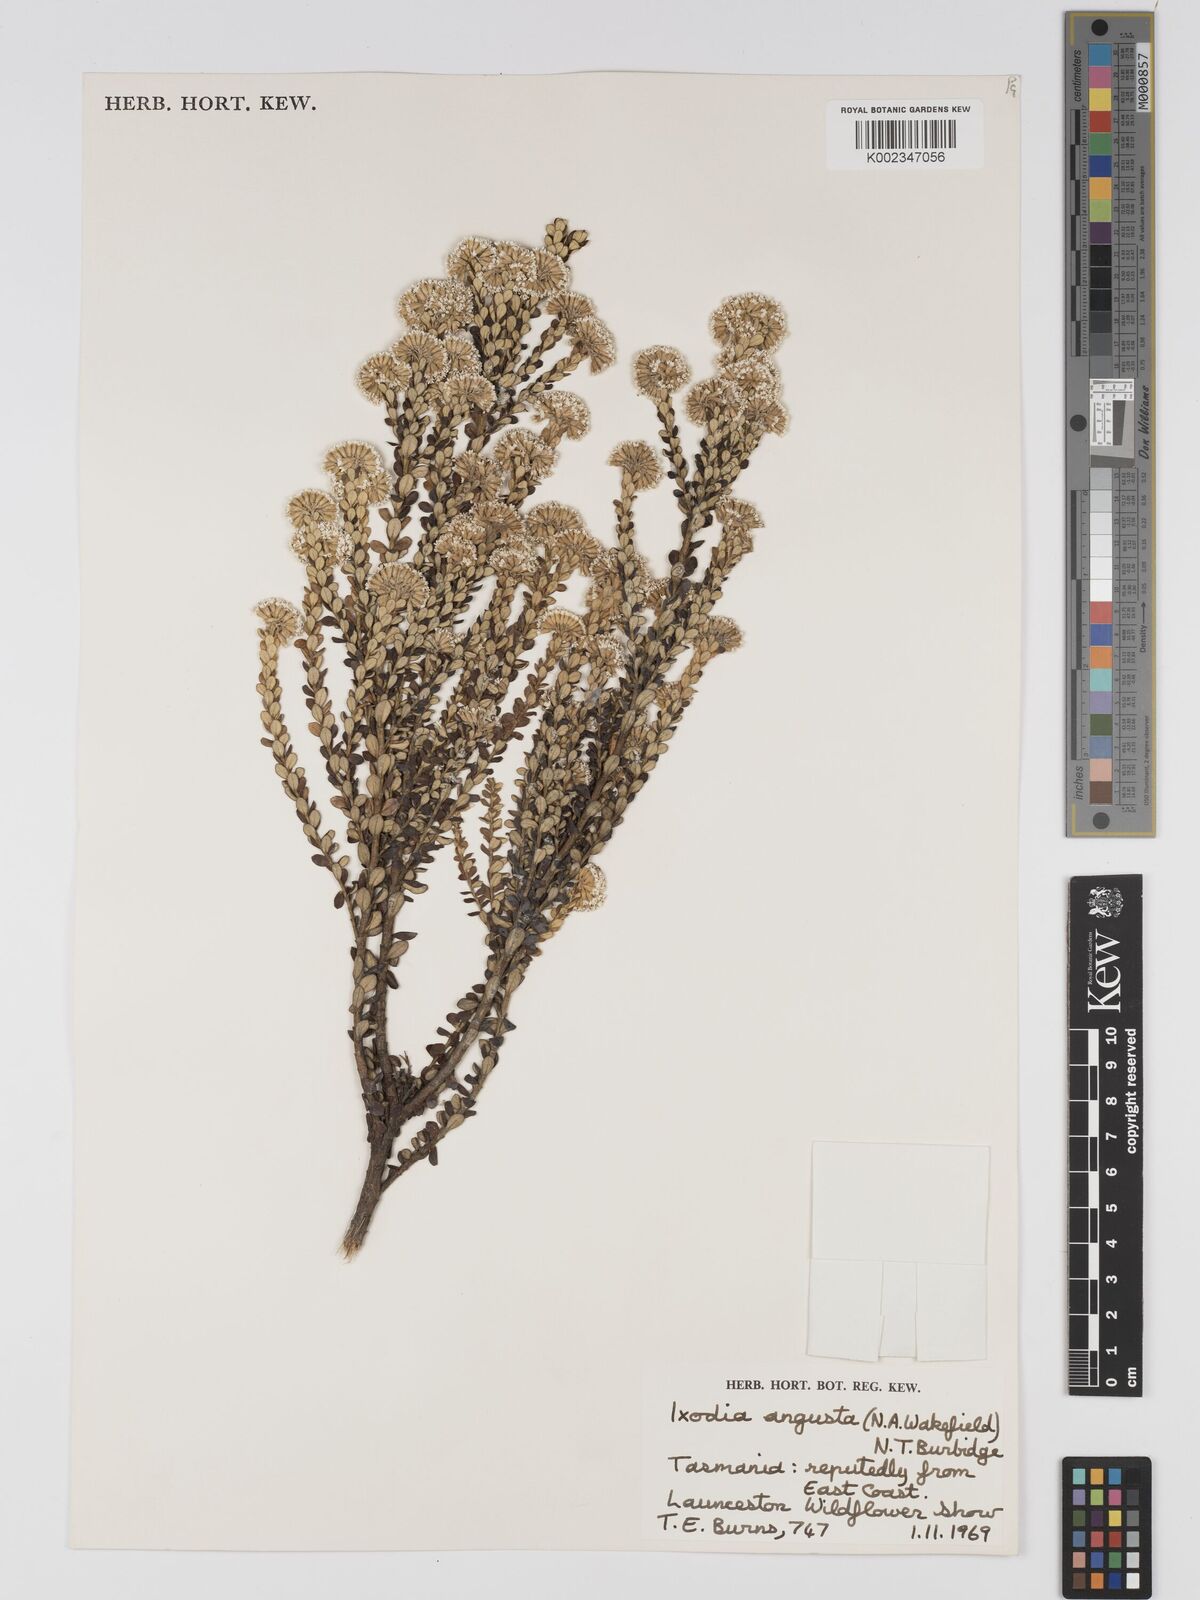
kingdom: Plantae
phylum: Tracheophyta
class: Magnoliopsida
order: Asterales
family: Asteraceae
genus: Odixia
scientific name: Odixia angusta
